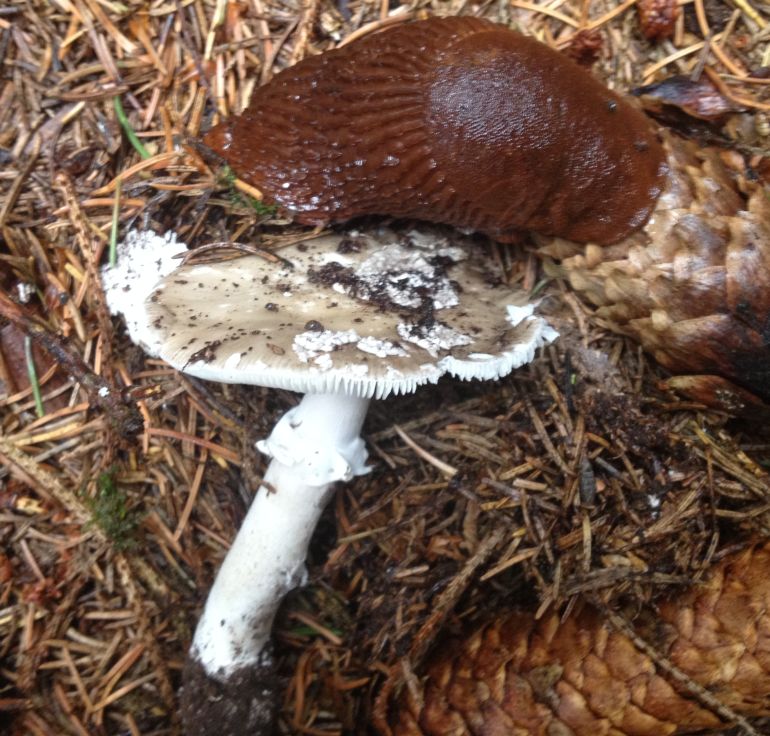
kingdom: Fungi
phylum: Basidiomycota
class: Agaricomycetes
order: Agaricales
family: Amanitaceae
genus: Amanita
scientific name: Amanita
